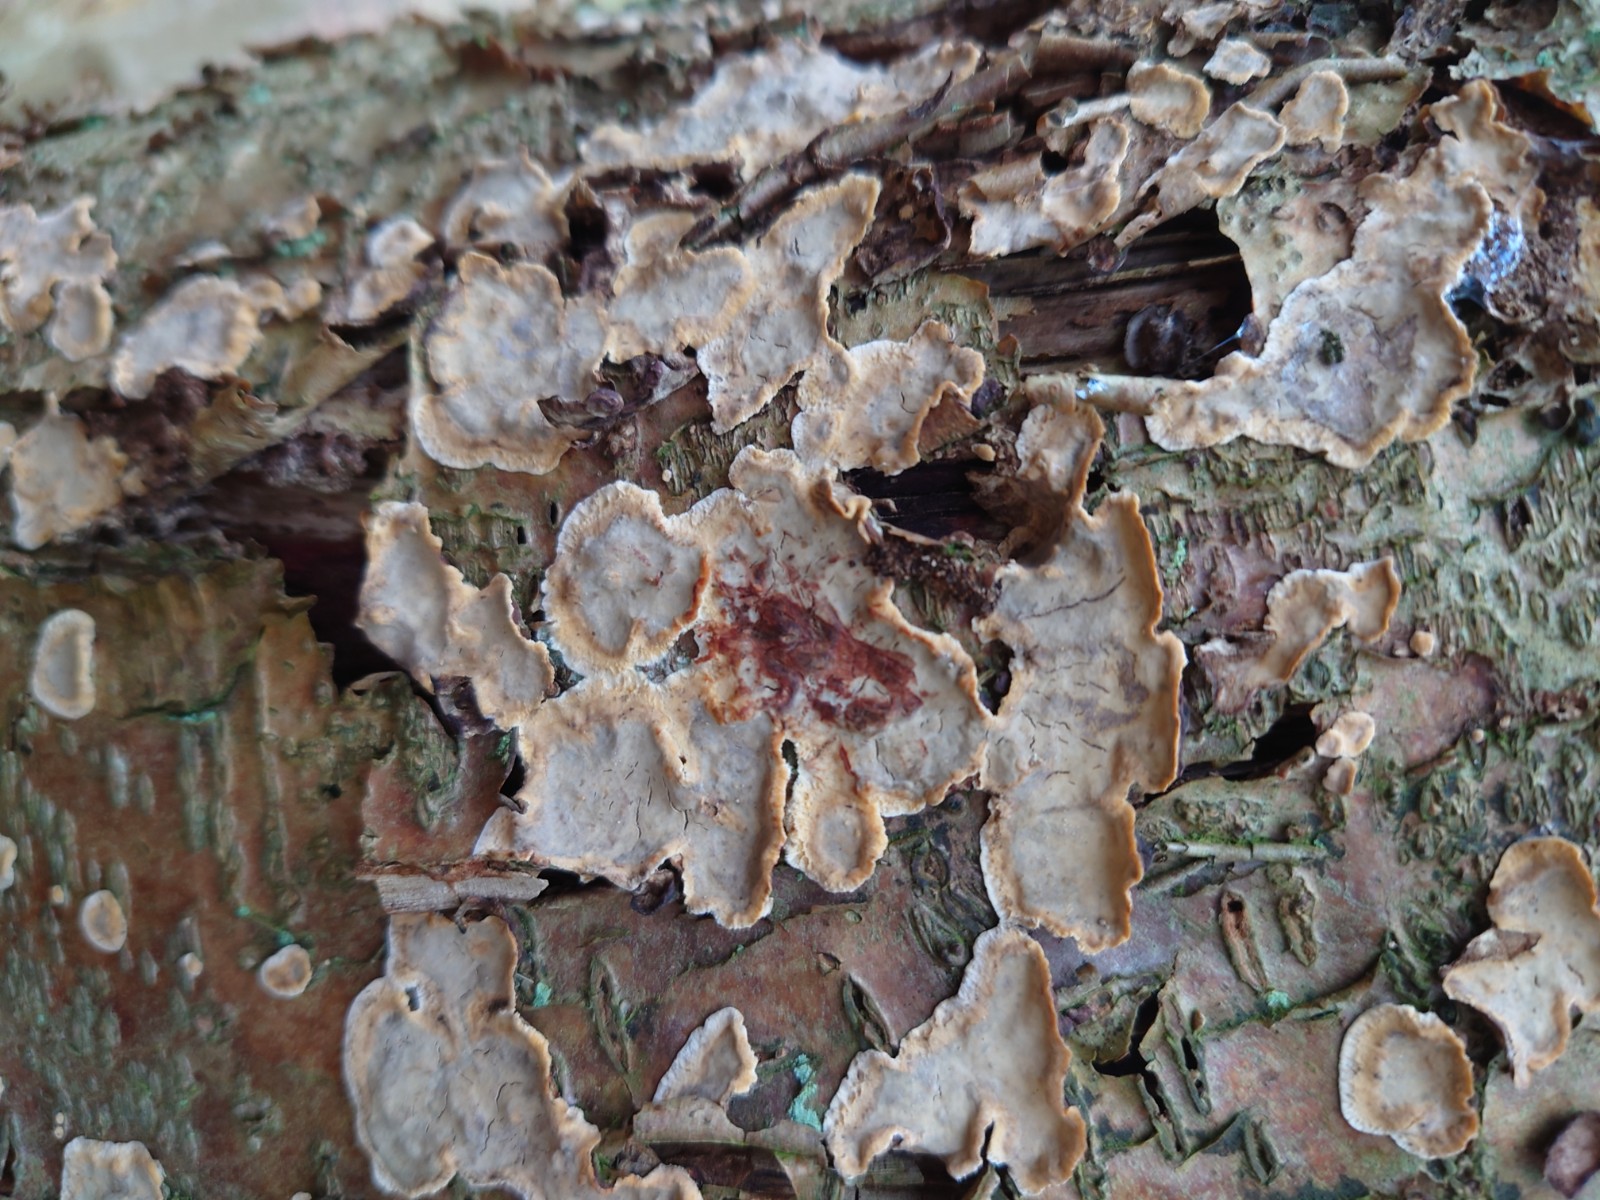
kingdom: Fungi
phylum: Basidiomycota
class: Agaricomycetes
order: Russulales
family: Stereaceae
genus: Stereum
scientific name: Stereum rugosum
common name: rynket lædersvamp
